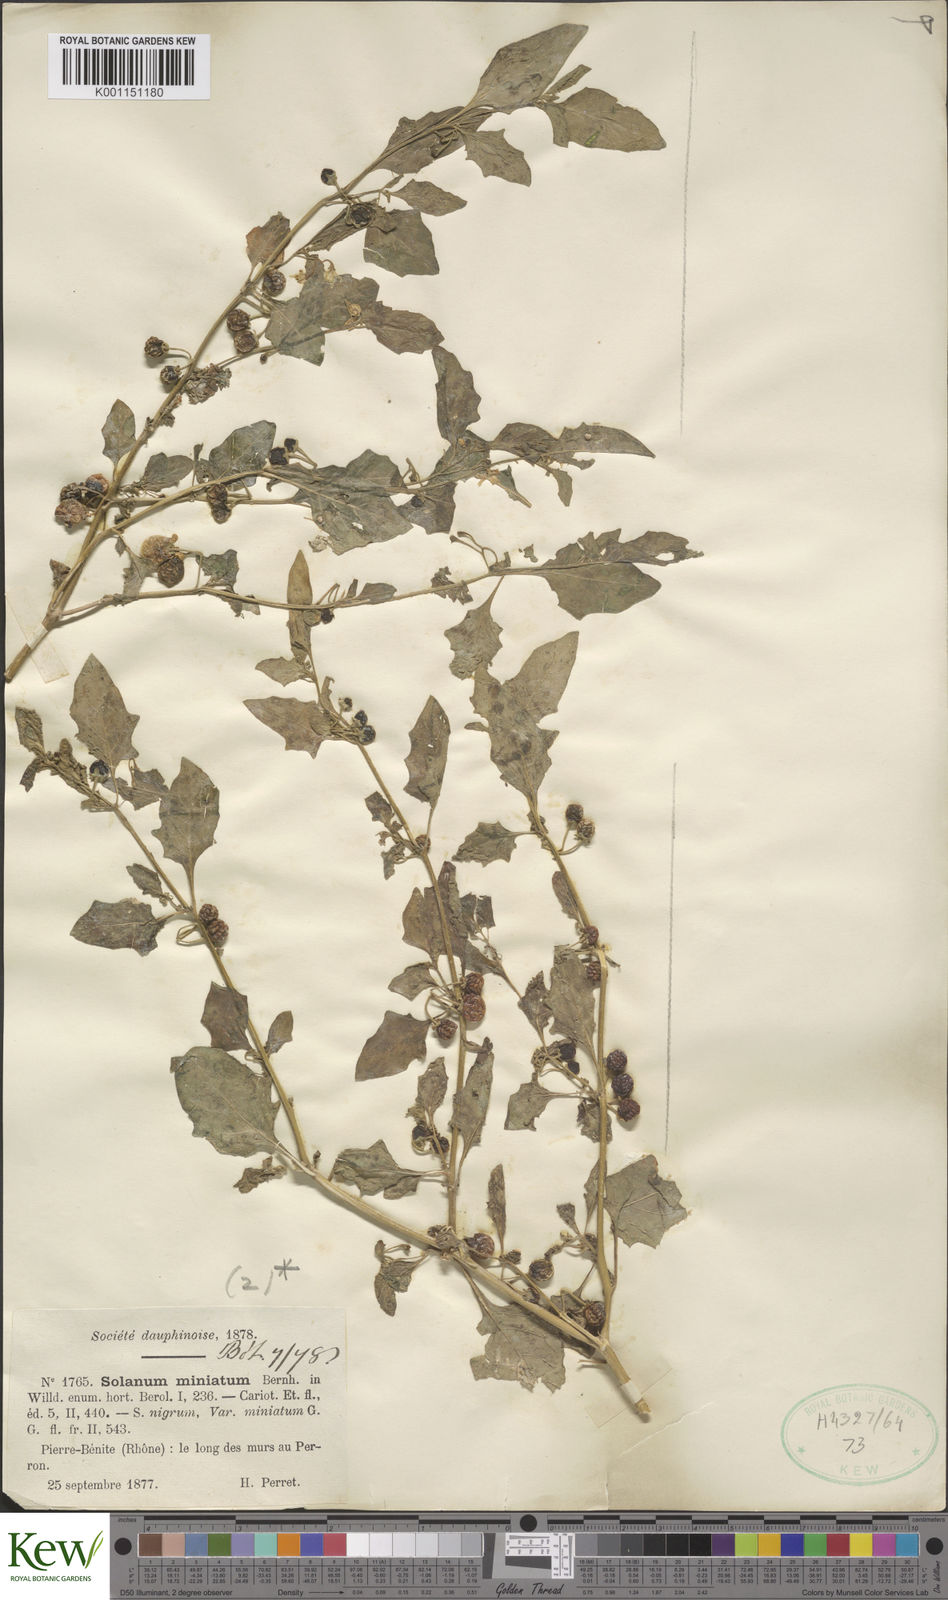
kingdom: Plantae
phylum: Tracheophyta
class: Magnoliopsida
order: Solanales
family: Solanaceae
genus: Solanum
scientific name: Solanum alatum
